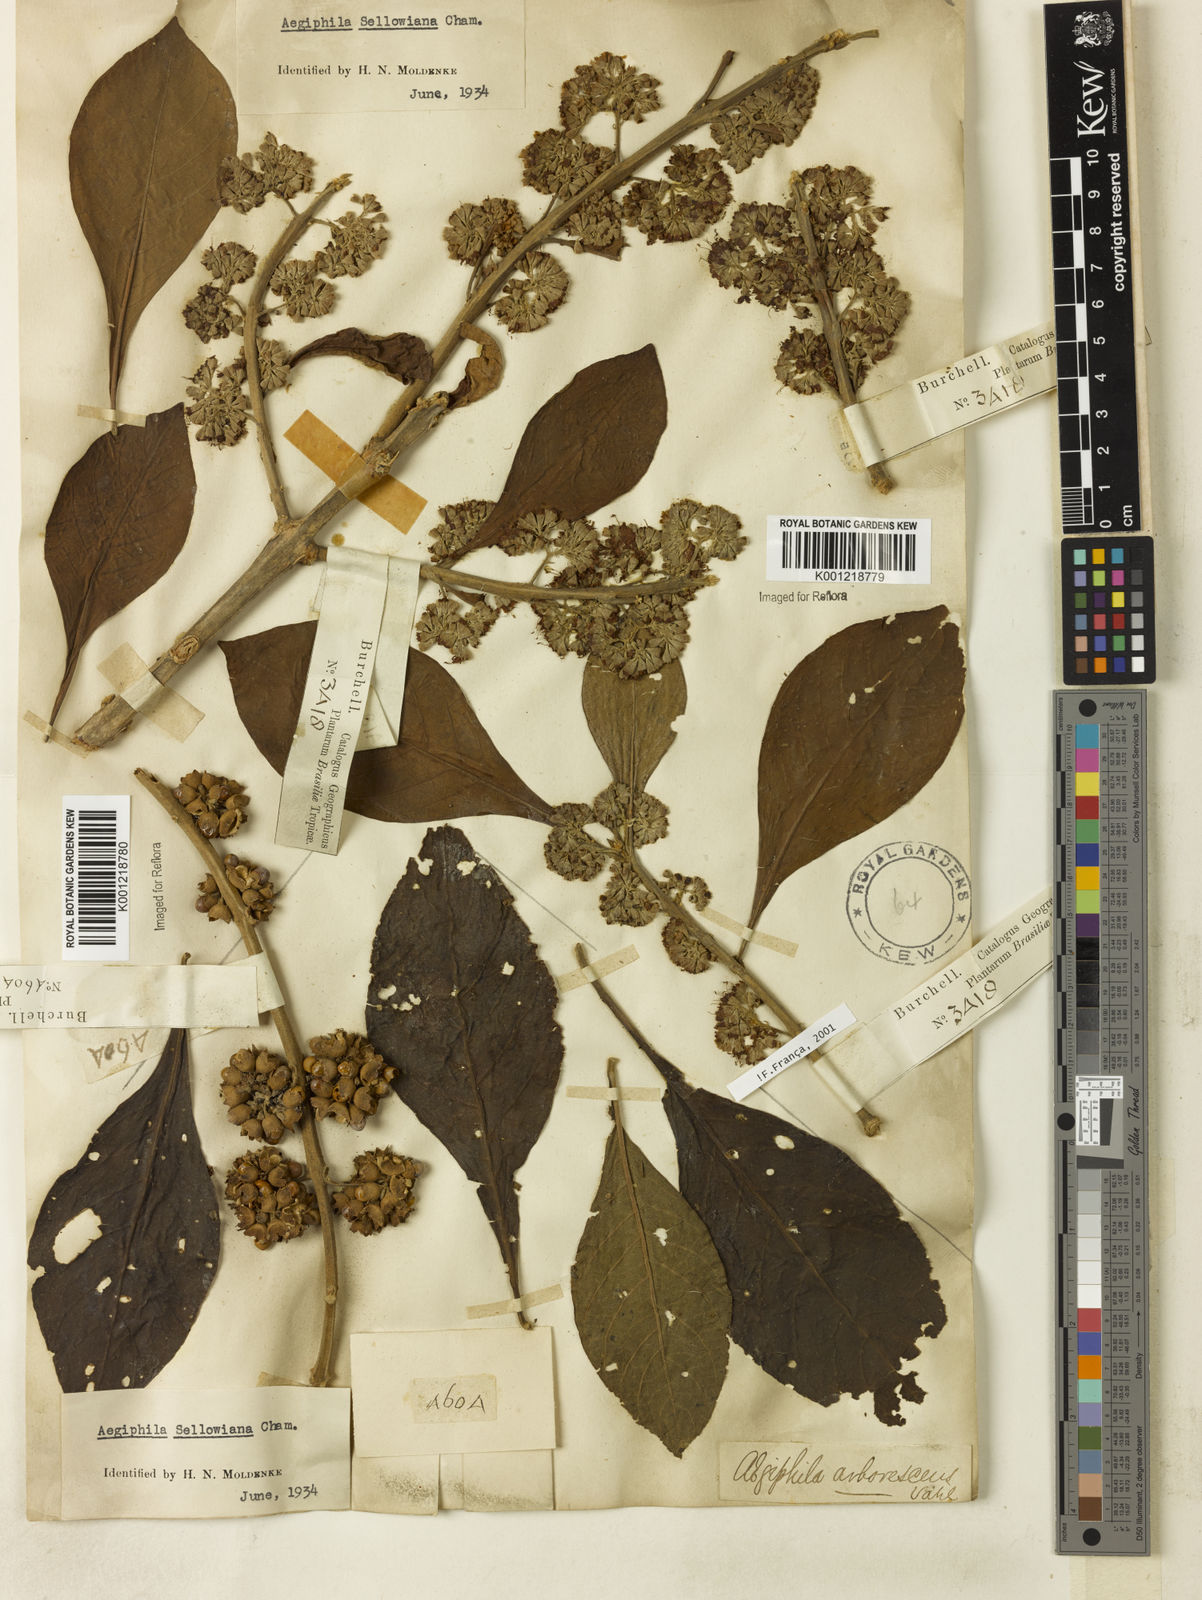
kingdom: Plantae
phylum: Tracheophyta
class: Magnoliopsida
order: Lamiales
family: Lamiaceae
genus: Aegiphila
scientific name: Aegiphila verticillata
